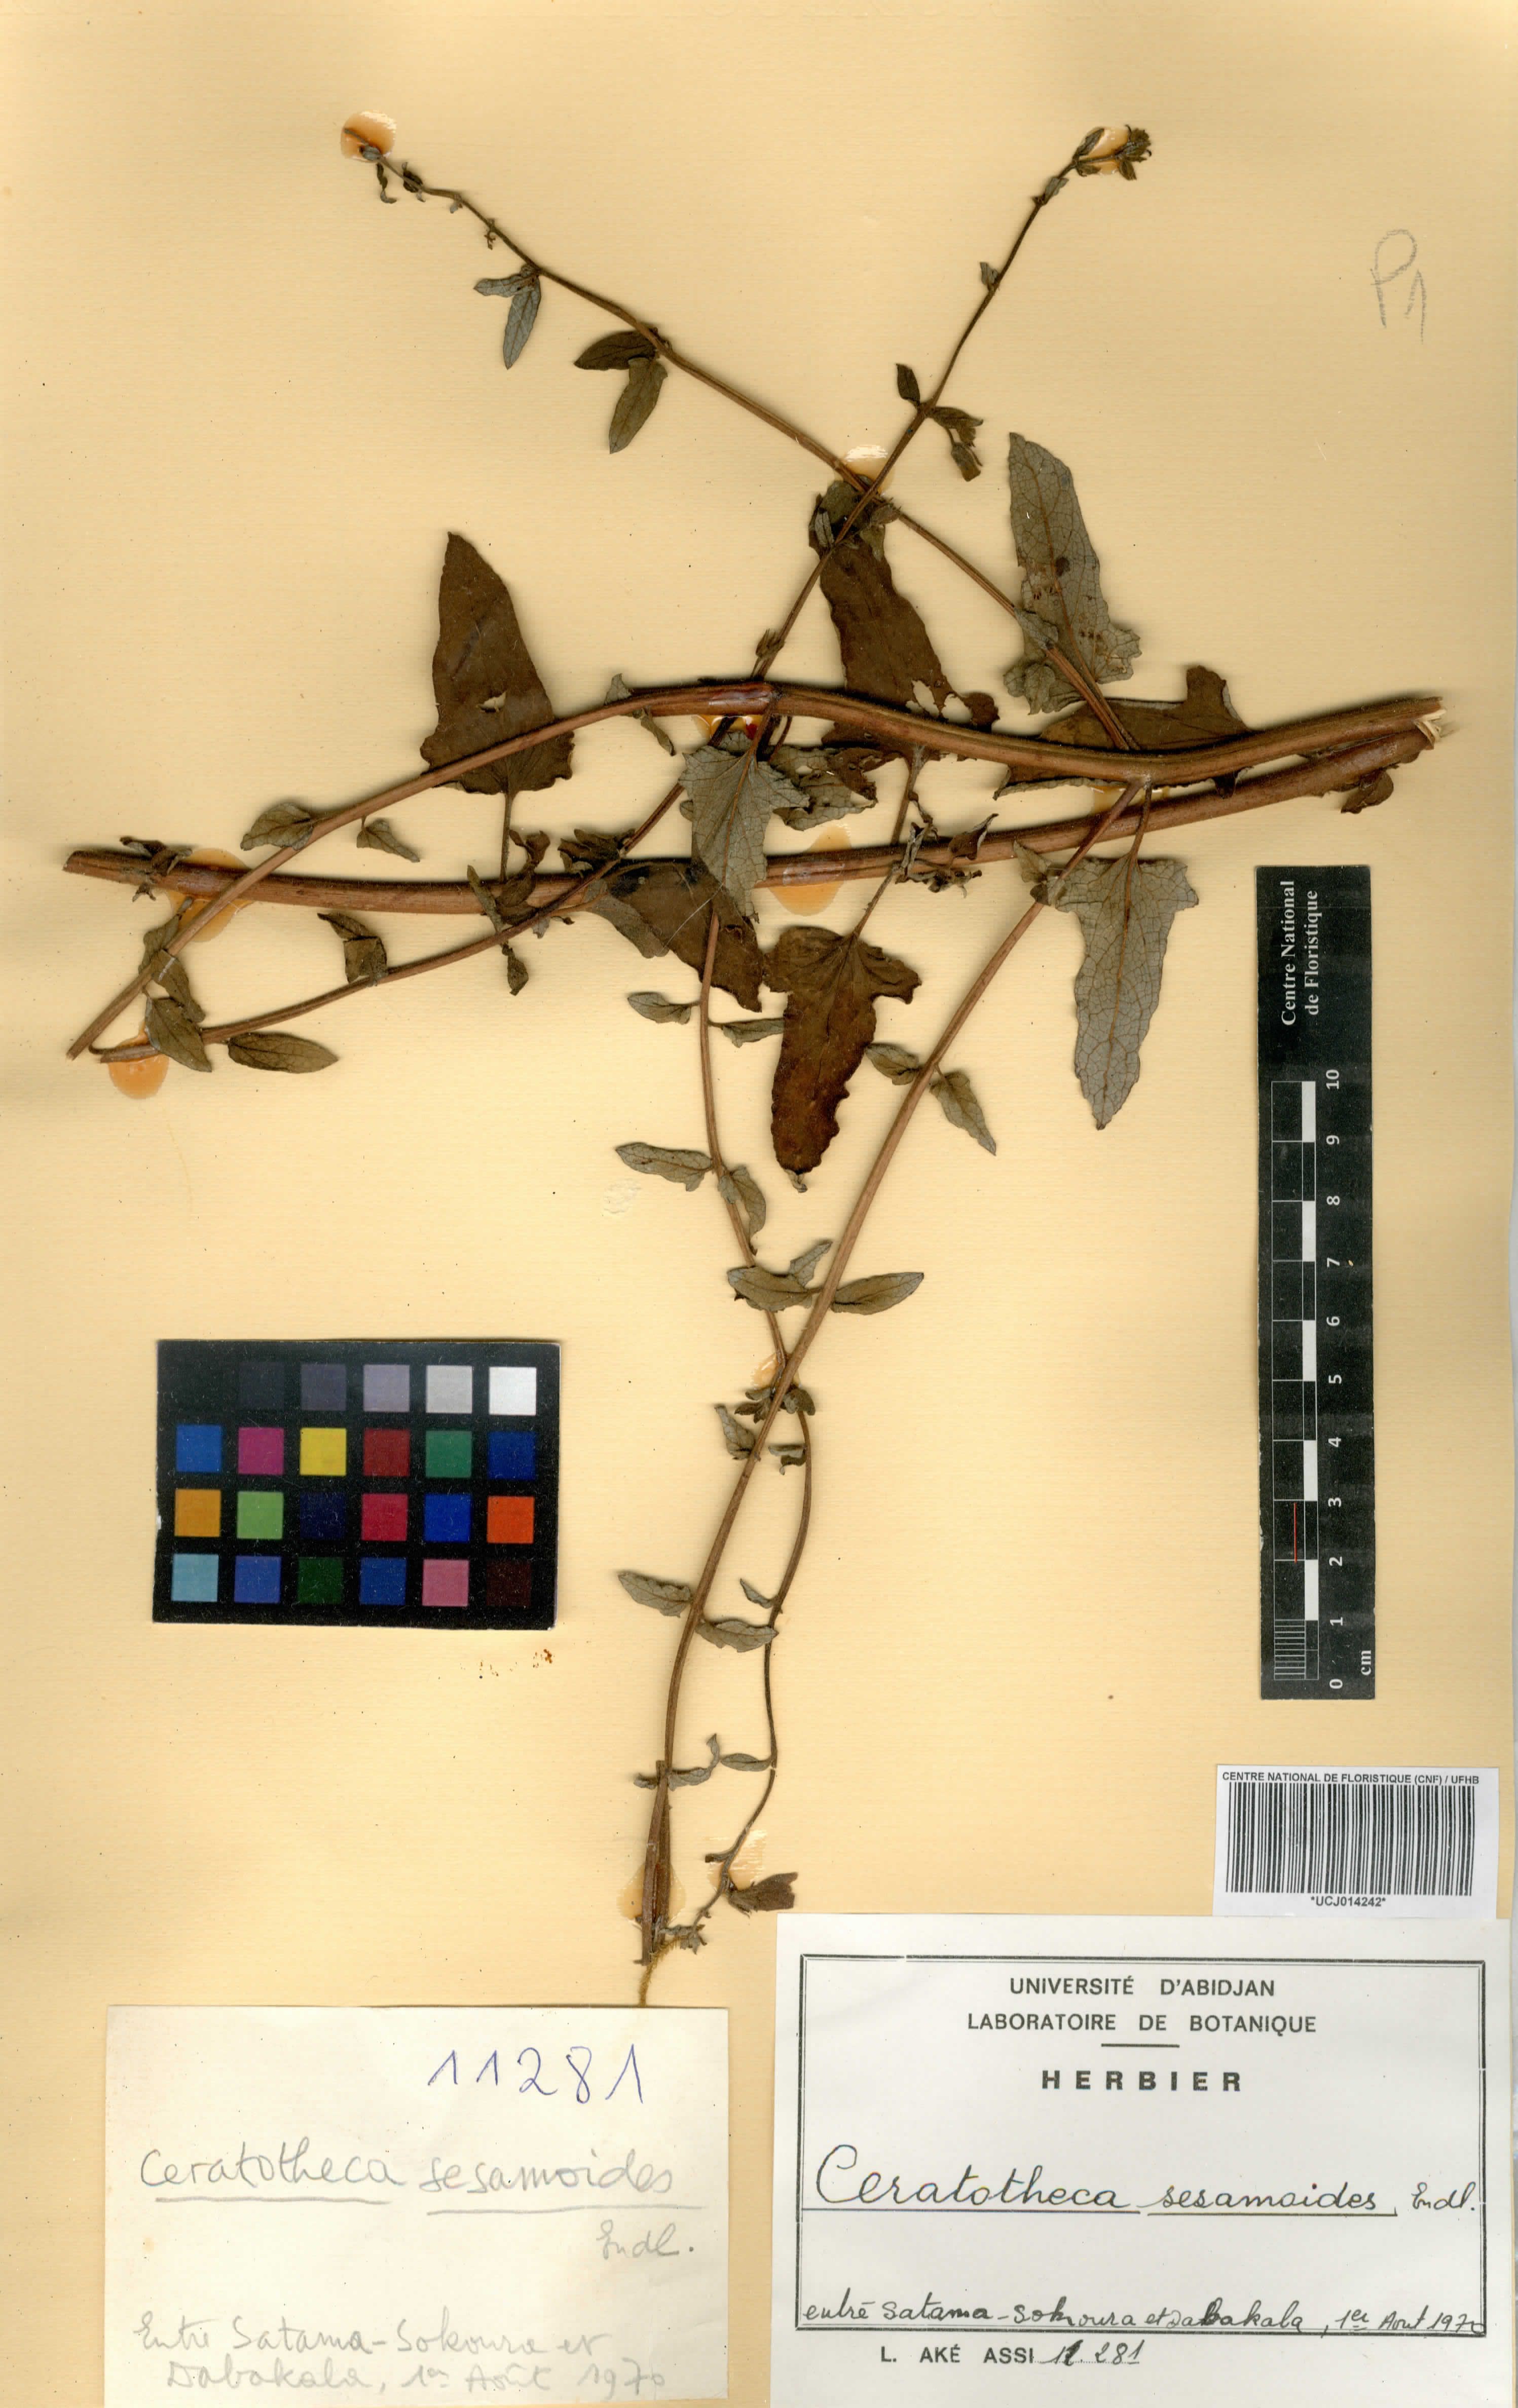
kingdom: Plantae
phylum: Tracheophyta
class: Magnoliopsida
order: Lamiales
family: Pedaliaceae
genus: Sesamum
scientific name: Sesamum sesamoides
